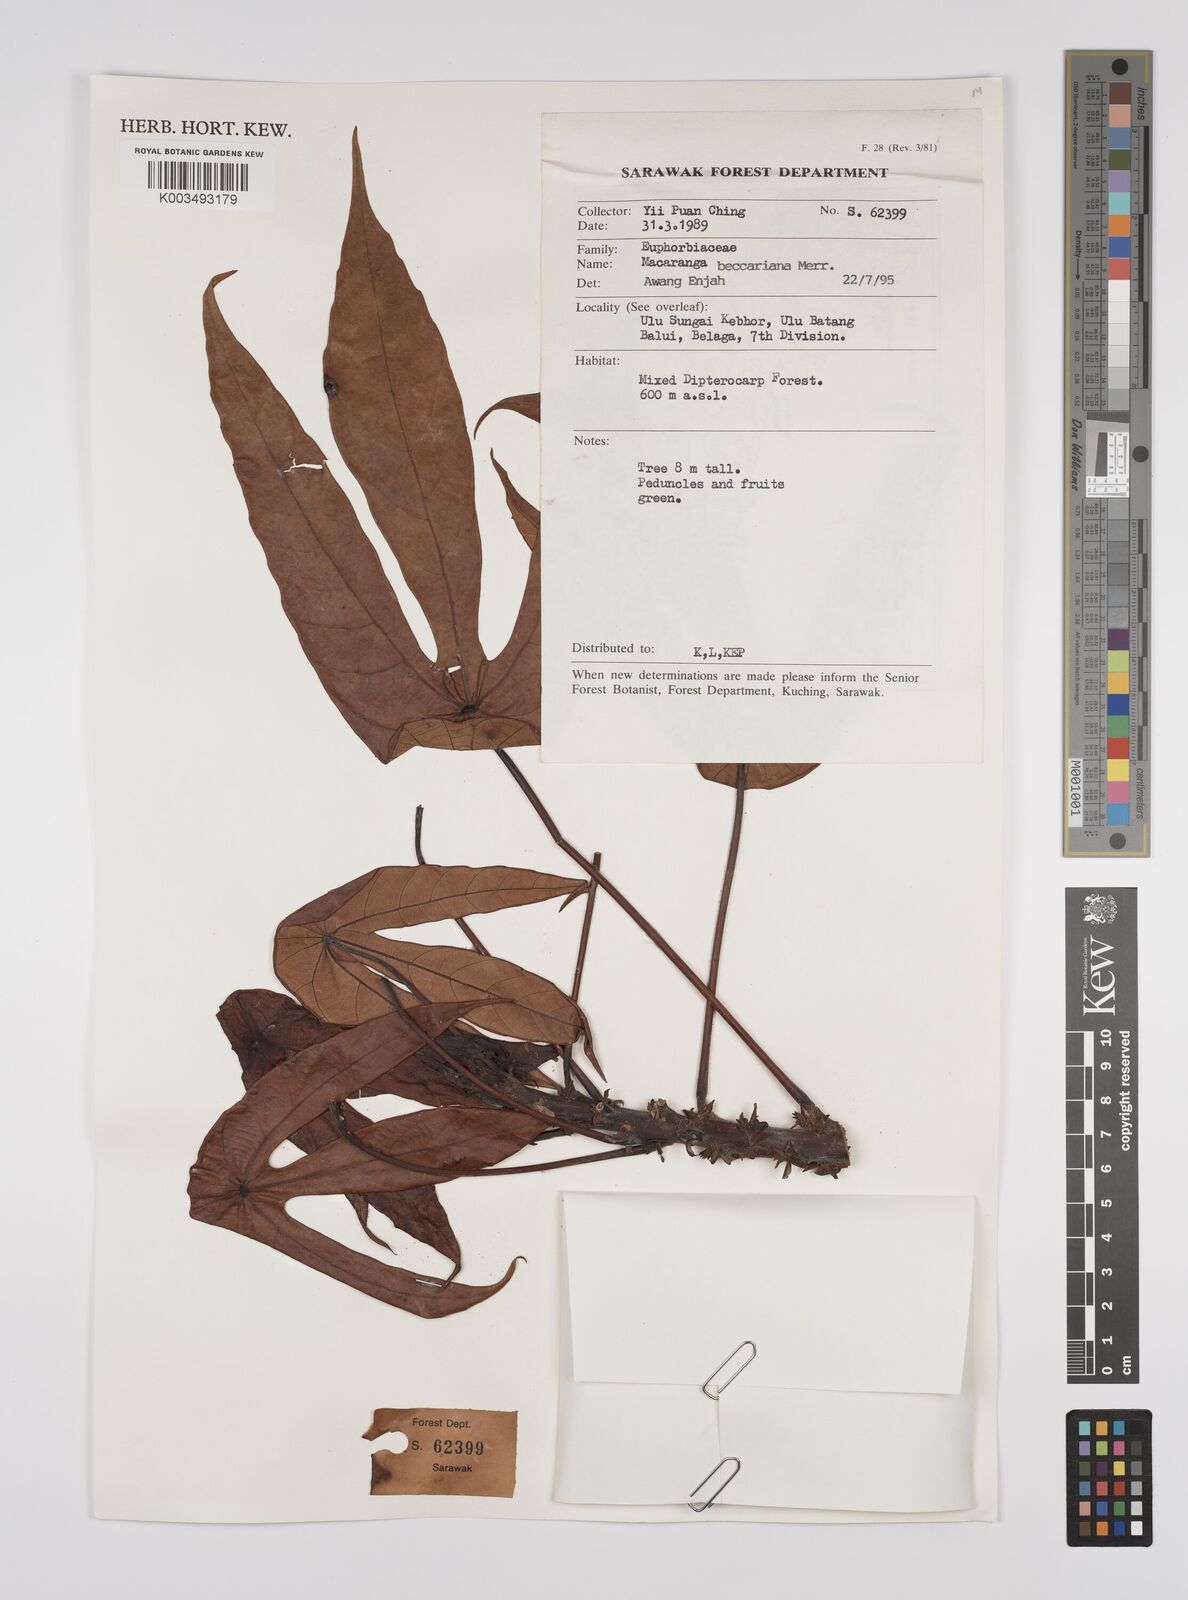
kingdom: Plantae
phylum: Tracheophyta
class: Magnoliopsida
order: Malpighiales
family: Euphorbiaceae
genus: Macaranga
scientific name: Macaranga beccariana
